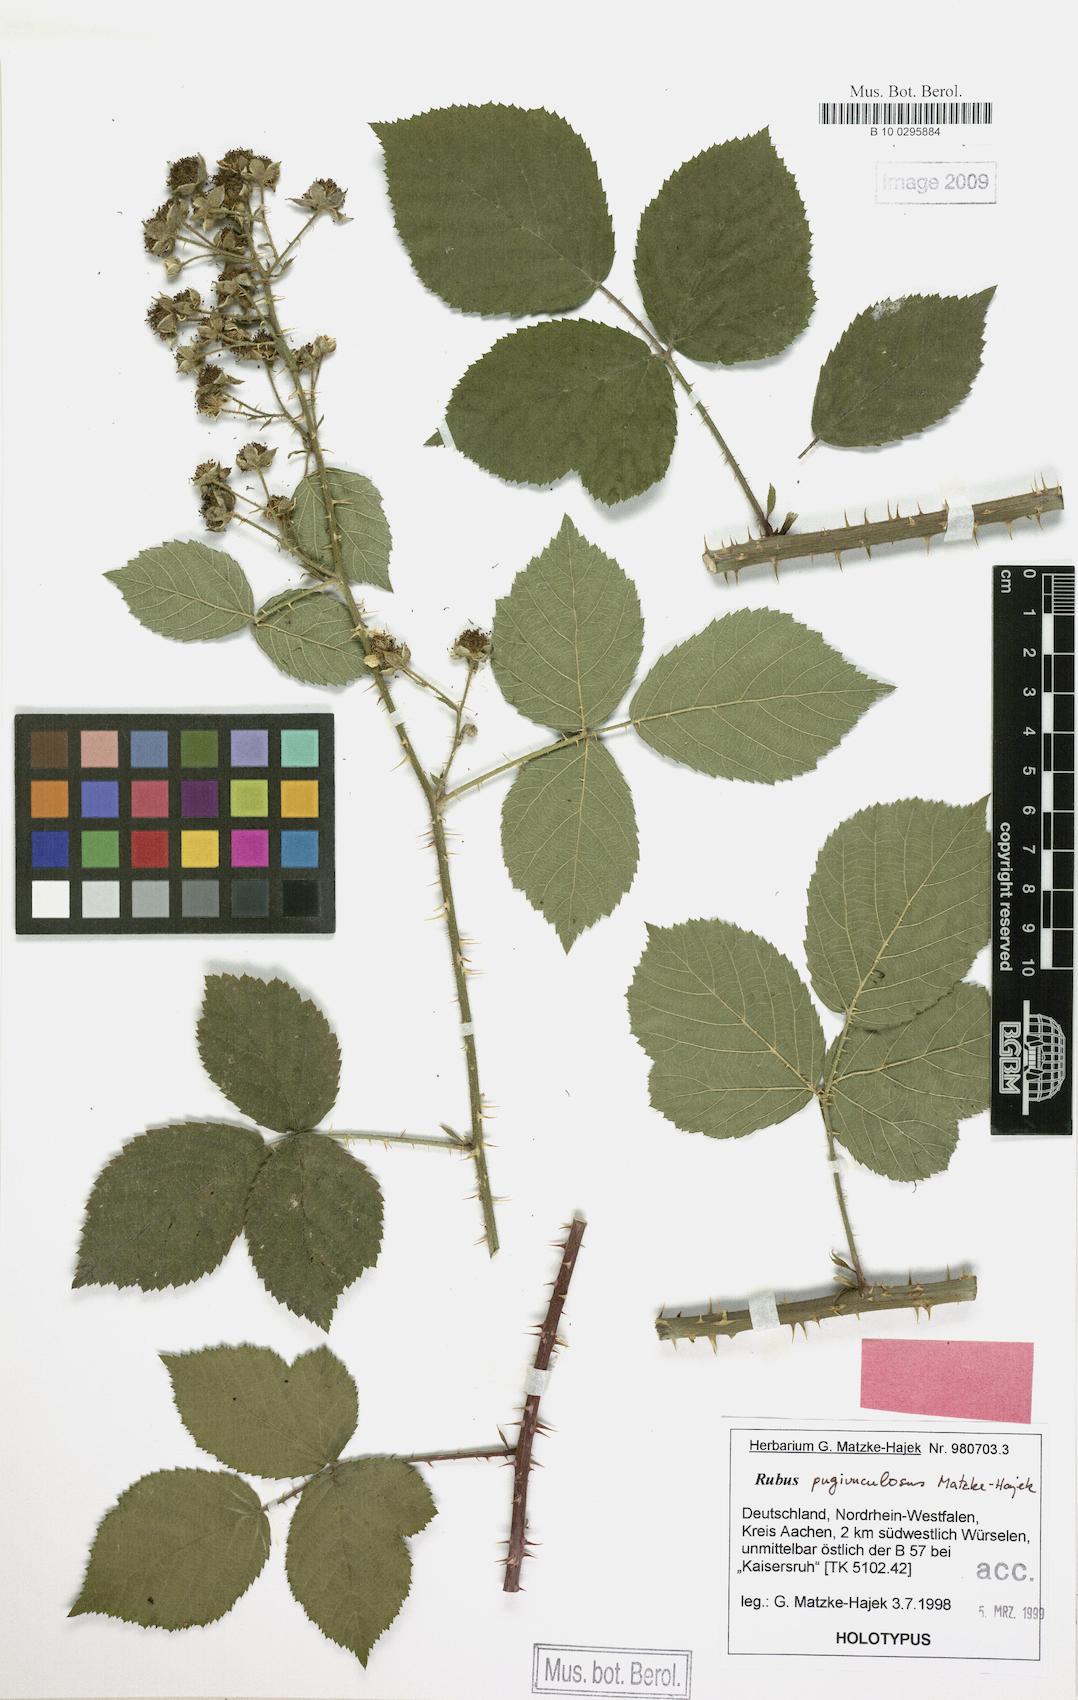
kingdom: Plantae
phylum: Tracheophyta
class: Magnoliopsida
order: Rosales
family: Rosaceae
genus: Rubus
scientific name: Rubus pugiunculosus
